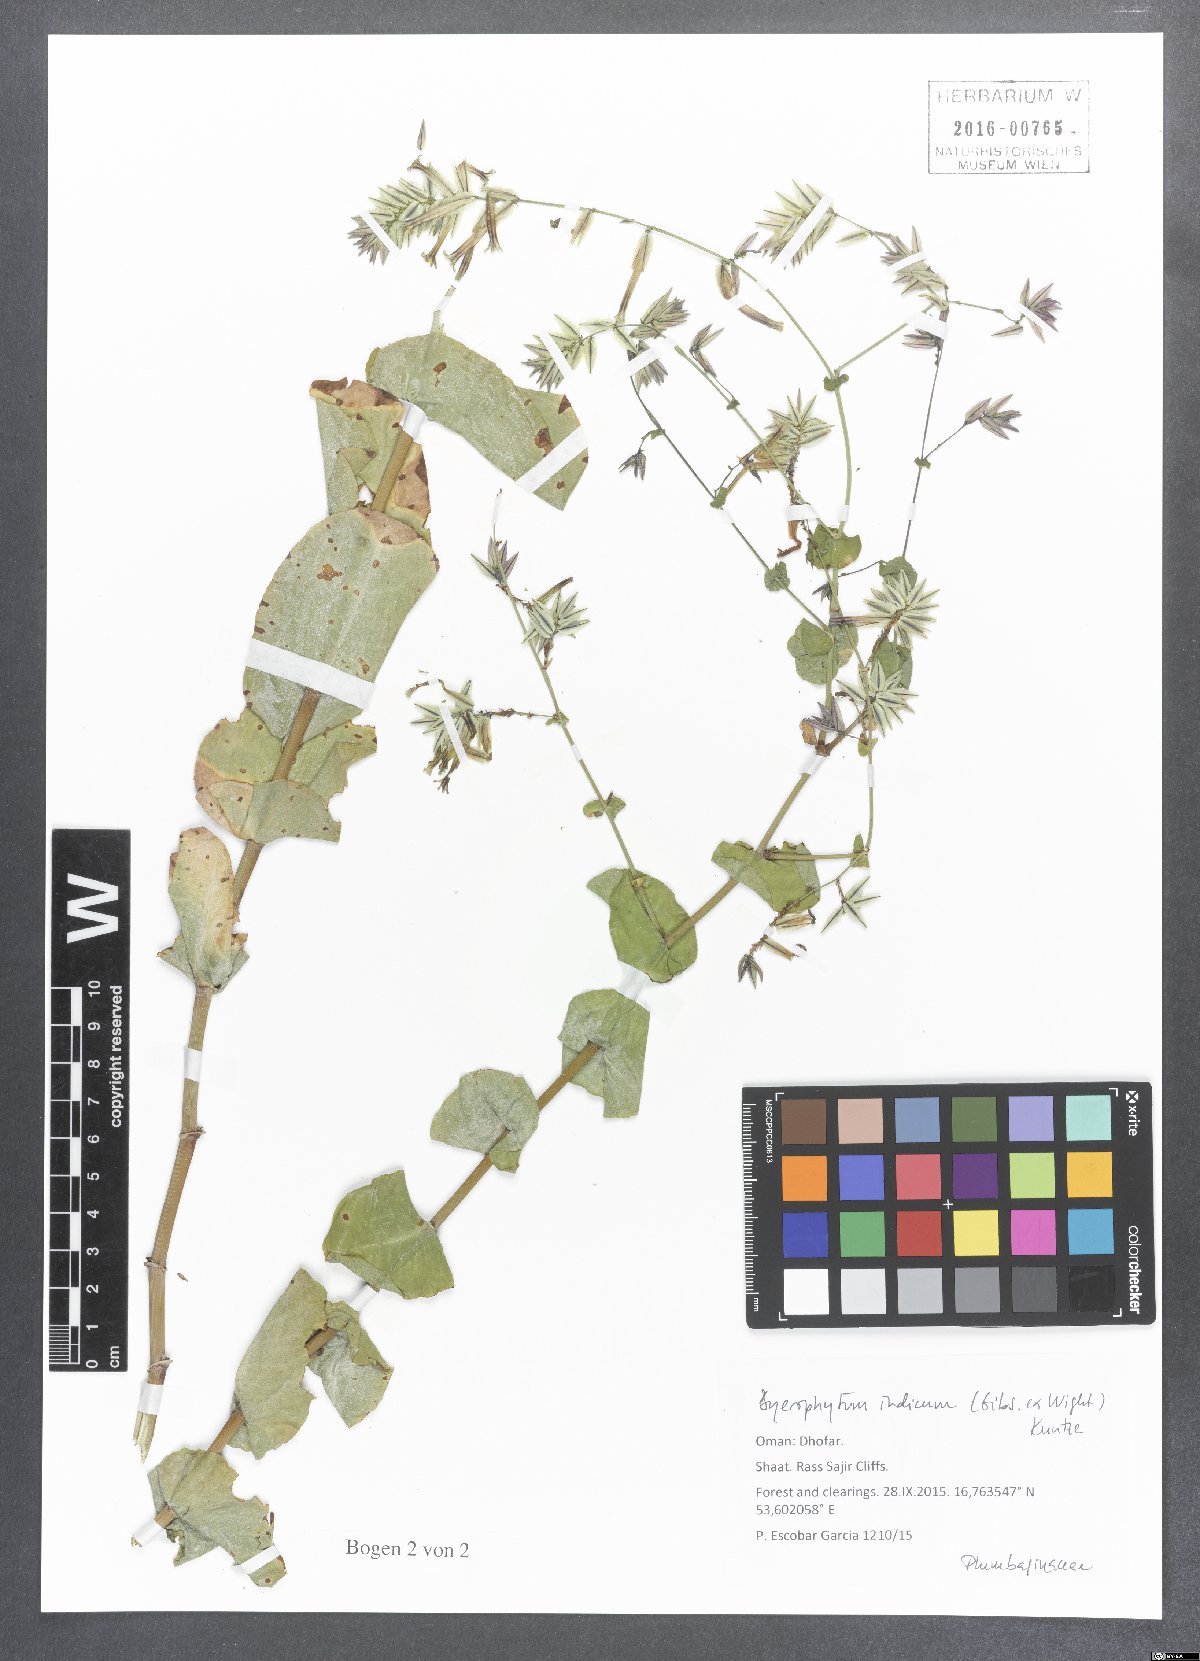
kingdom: Plantae
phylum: Tracheophyta
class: Magnoliopsida
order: Caryophyllales
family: Plumbaginaceae
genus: Dyerophytum
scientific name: Dyerophytum indicum
